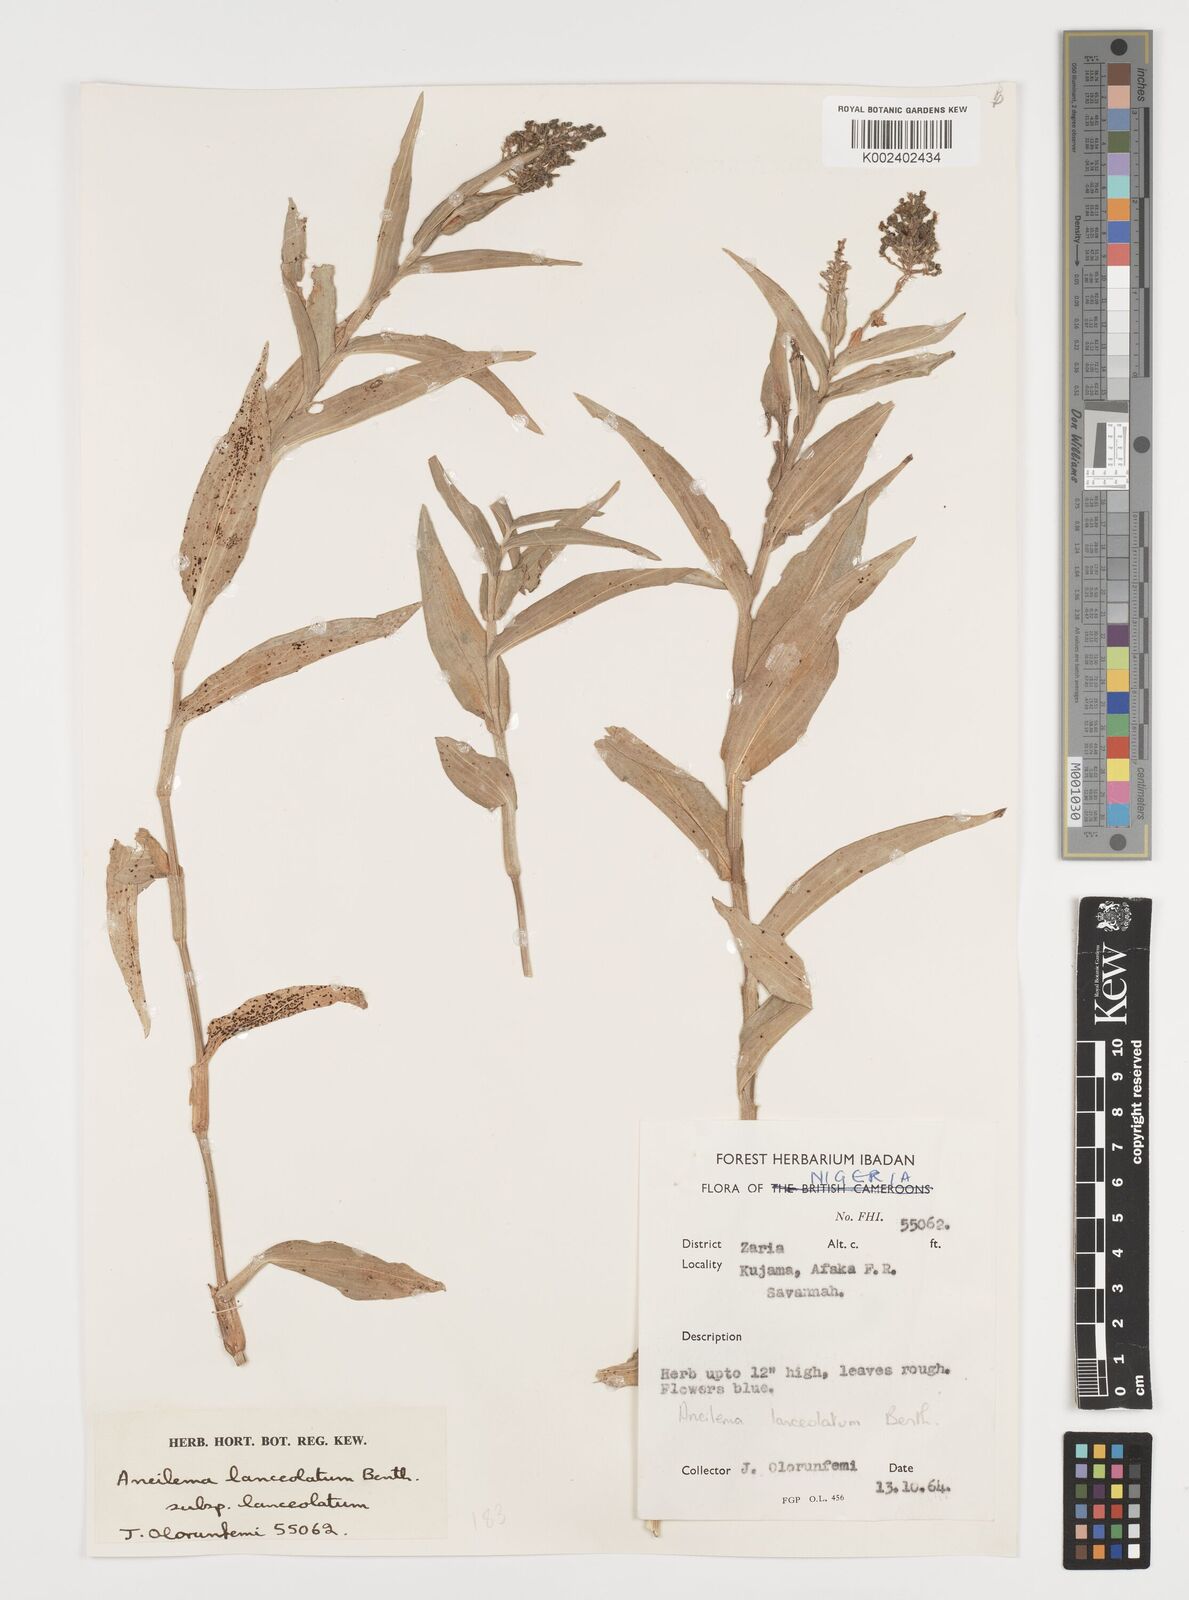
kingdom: Plantae
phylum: Tracheophyta
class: Liliopsida
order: Commelinales
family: Commelinaceae
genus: Aneilema
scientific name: Aneilema lanceolatum
